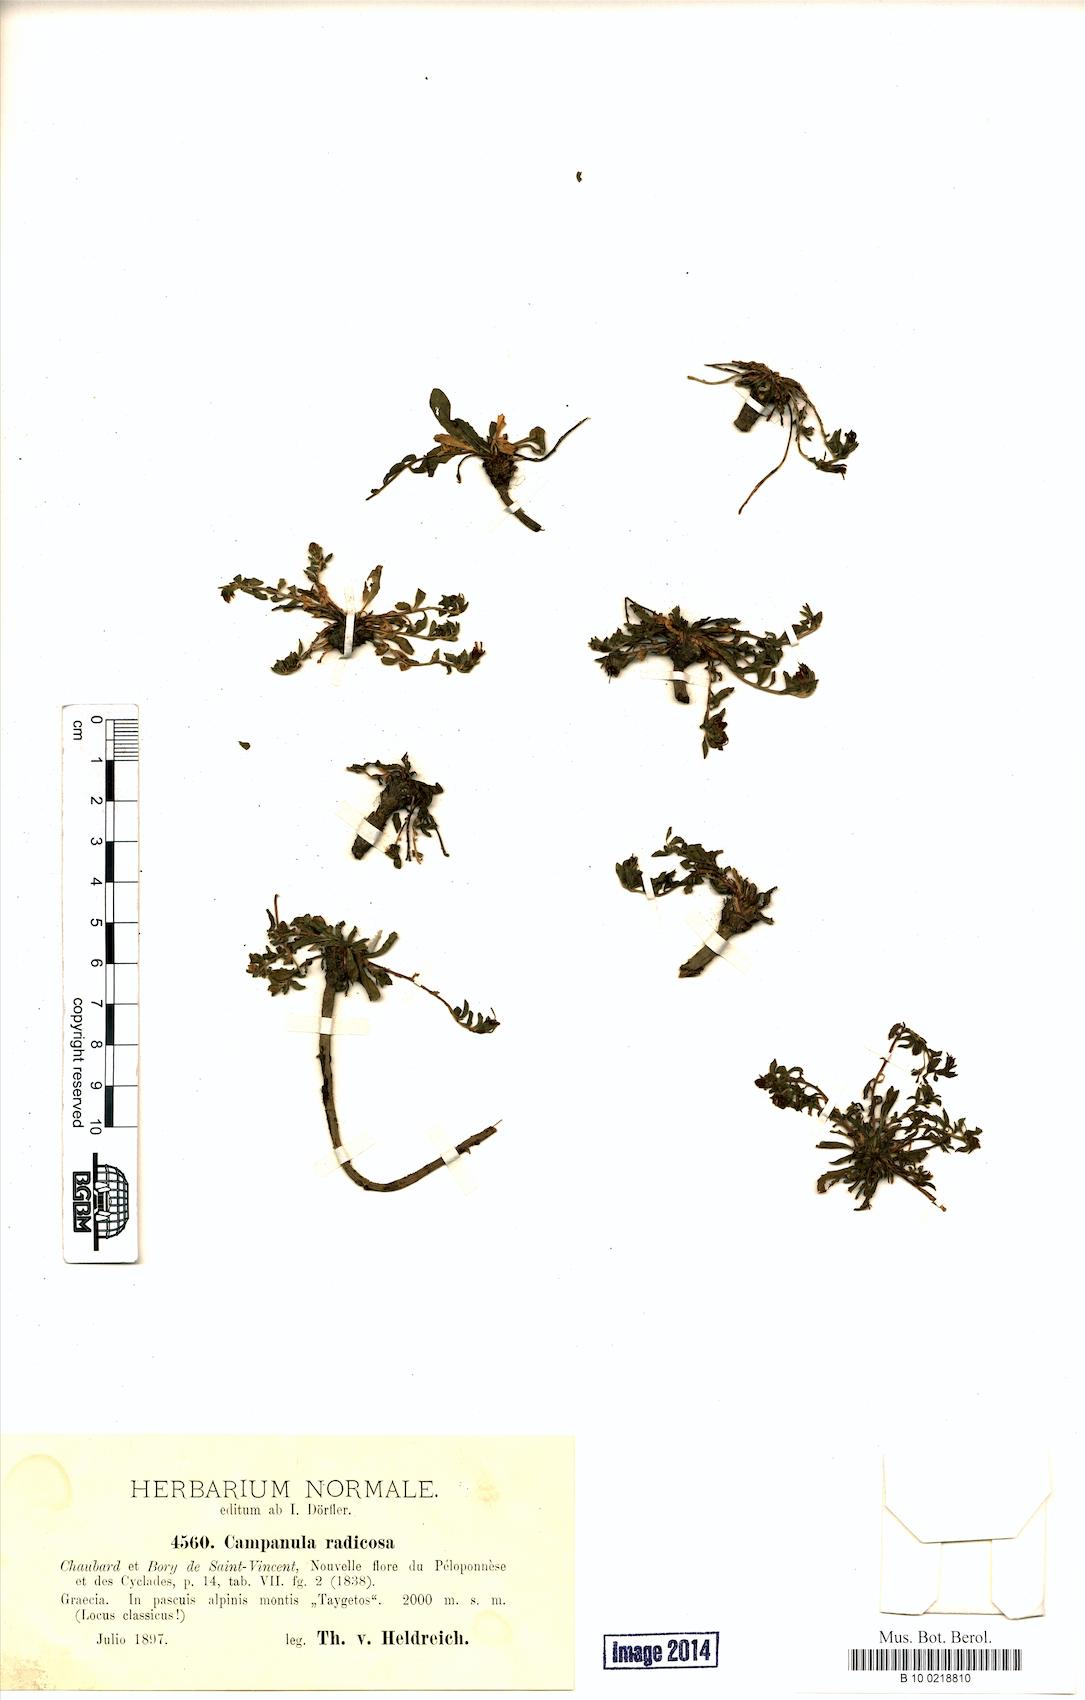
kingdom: Plantae
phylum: Tracheophyta
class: Magnoliopsida
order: Asterales
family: Campanulaceae
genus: Campanula
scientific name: Campanula radicosa
